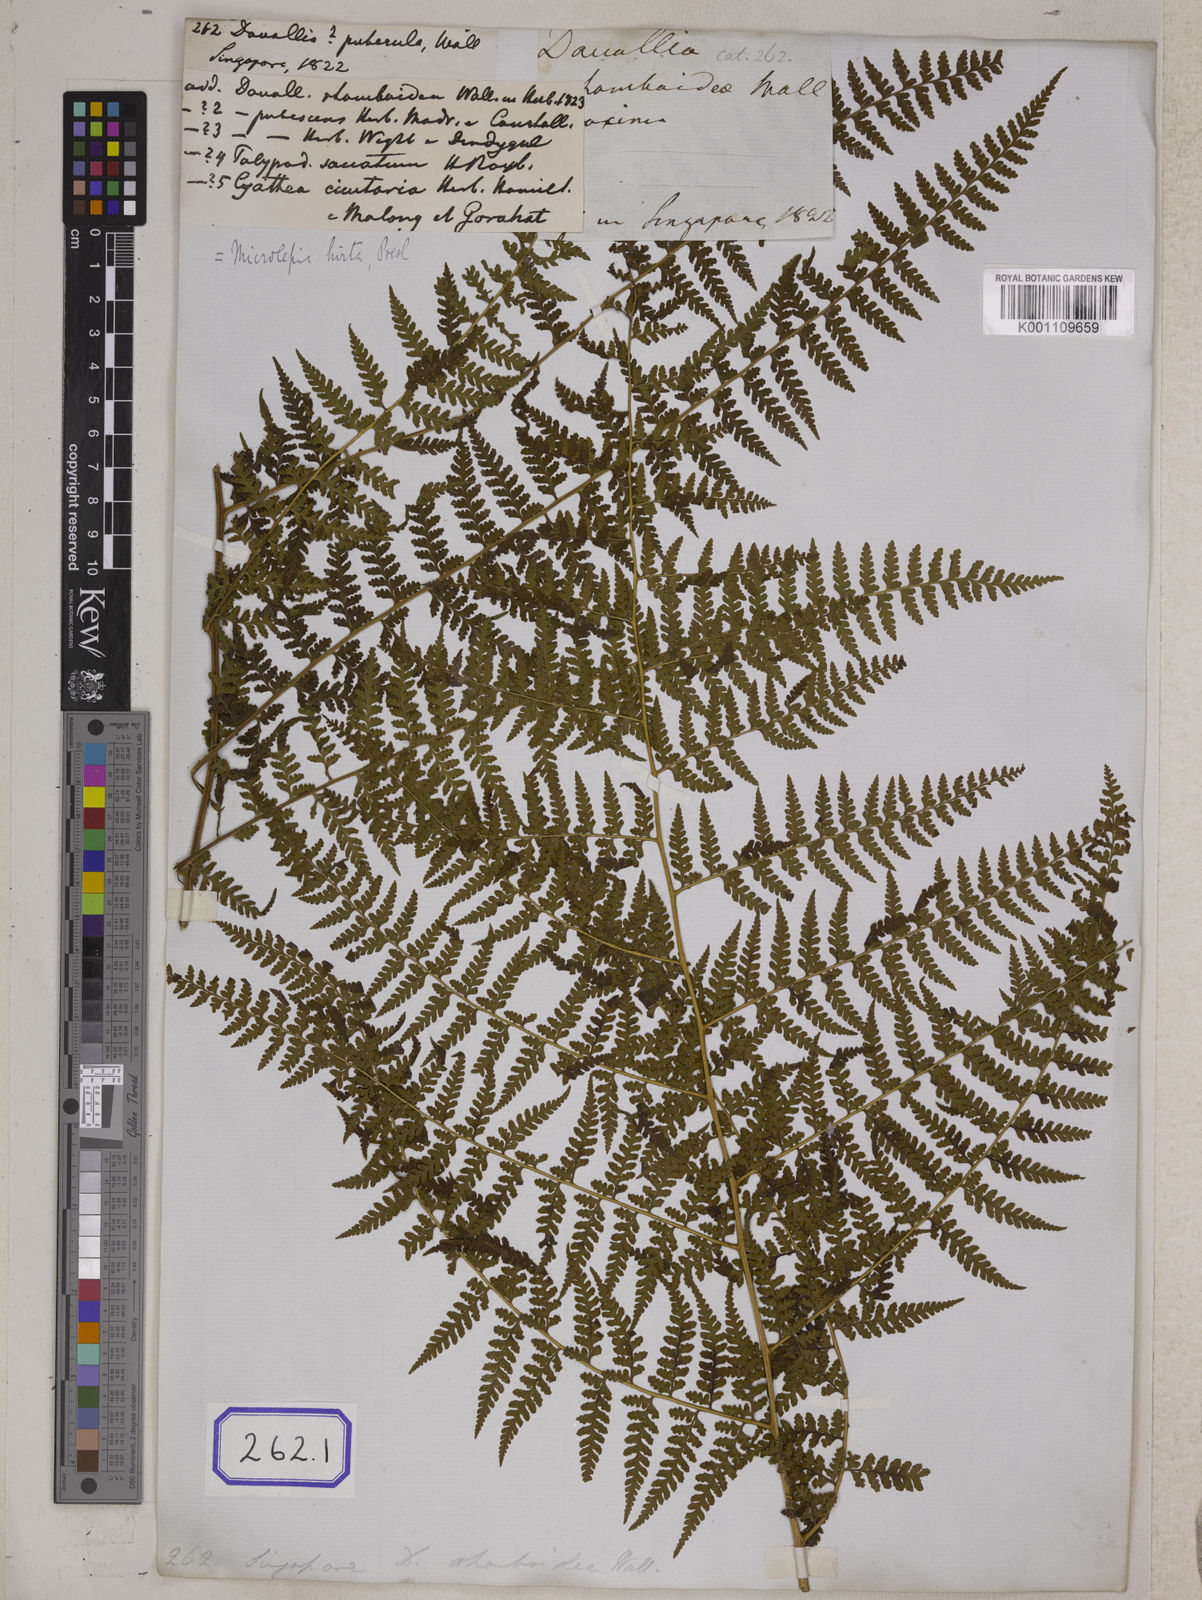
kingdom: Plantae
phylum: Tracheophyta
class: Polypodiopsida
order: Polypodiales
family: Dennstaedtiaceae
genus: Microlepia
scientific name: Microlepia marginata
